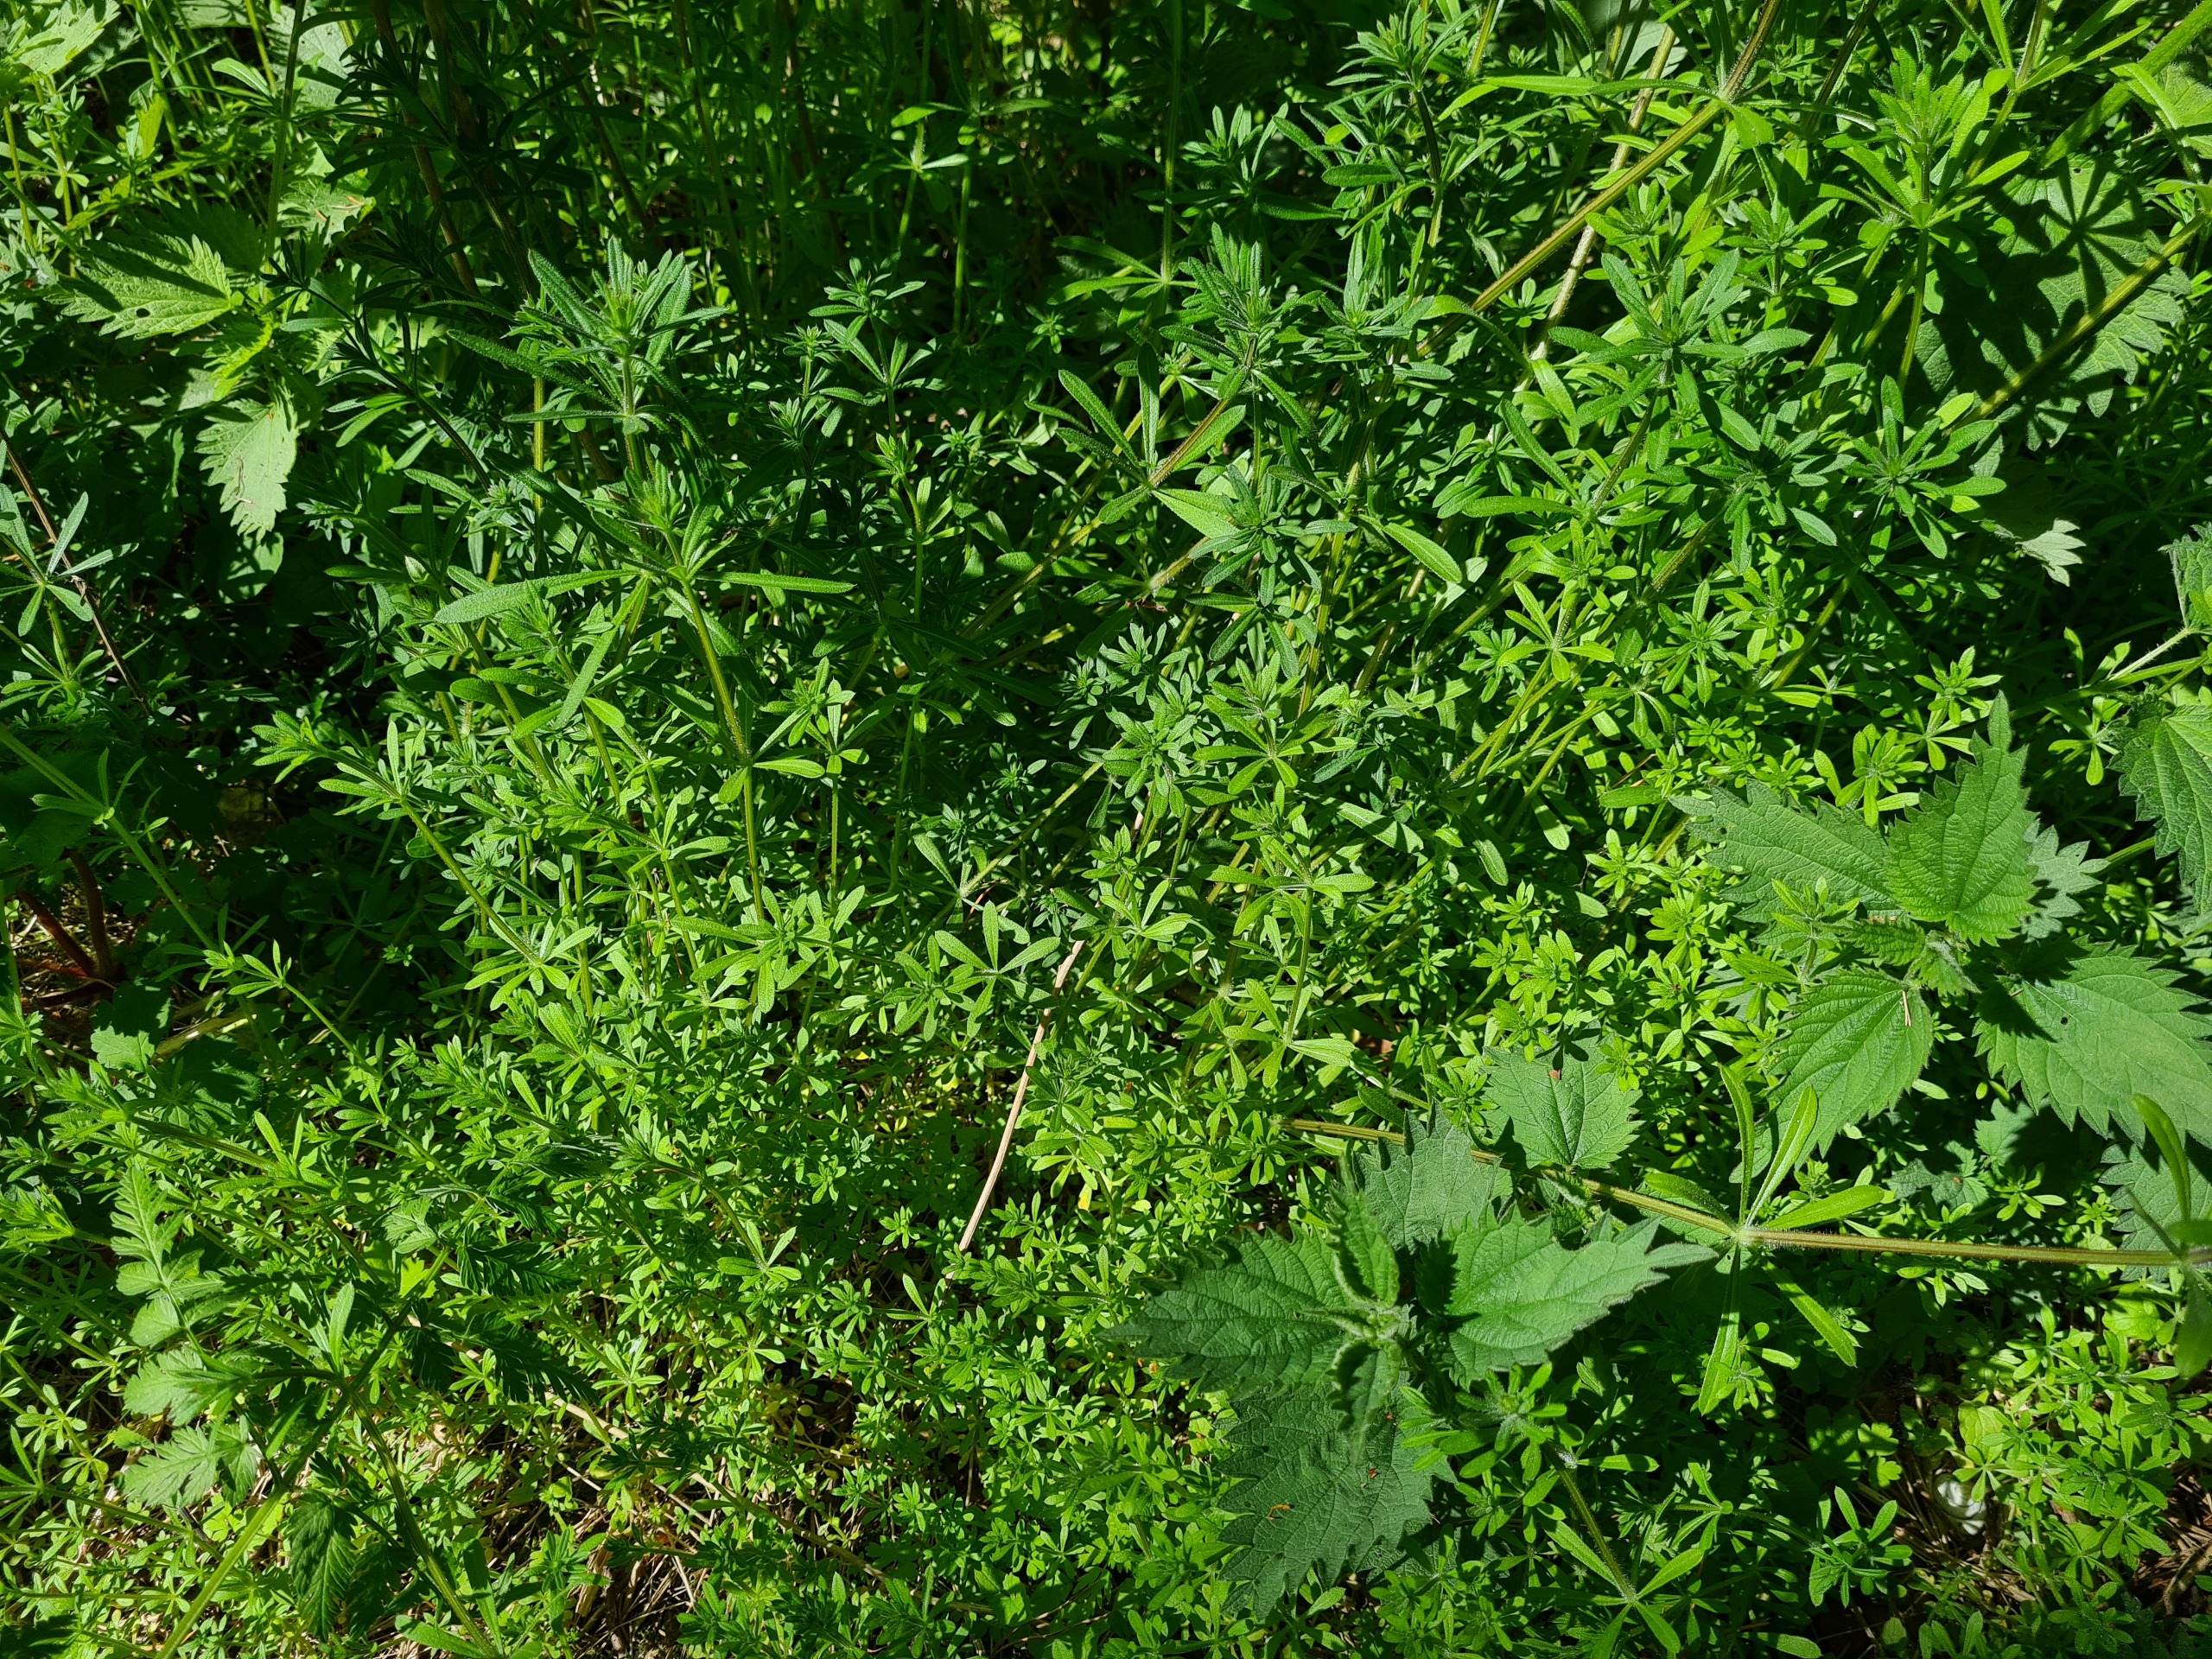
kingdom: Plantae
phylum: Tracheophyta
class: Magnoliopsida
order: Gentianales
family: Rubiaceae
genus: Galium
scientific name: Galium aparine
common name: Burre-snerre
